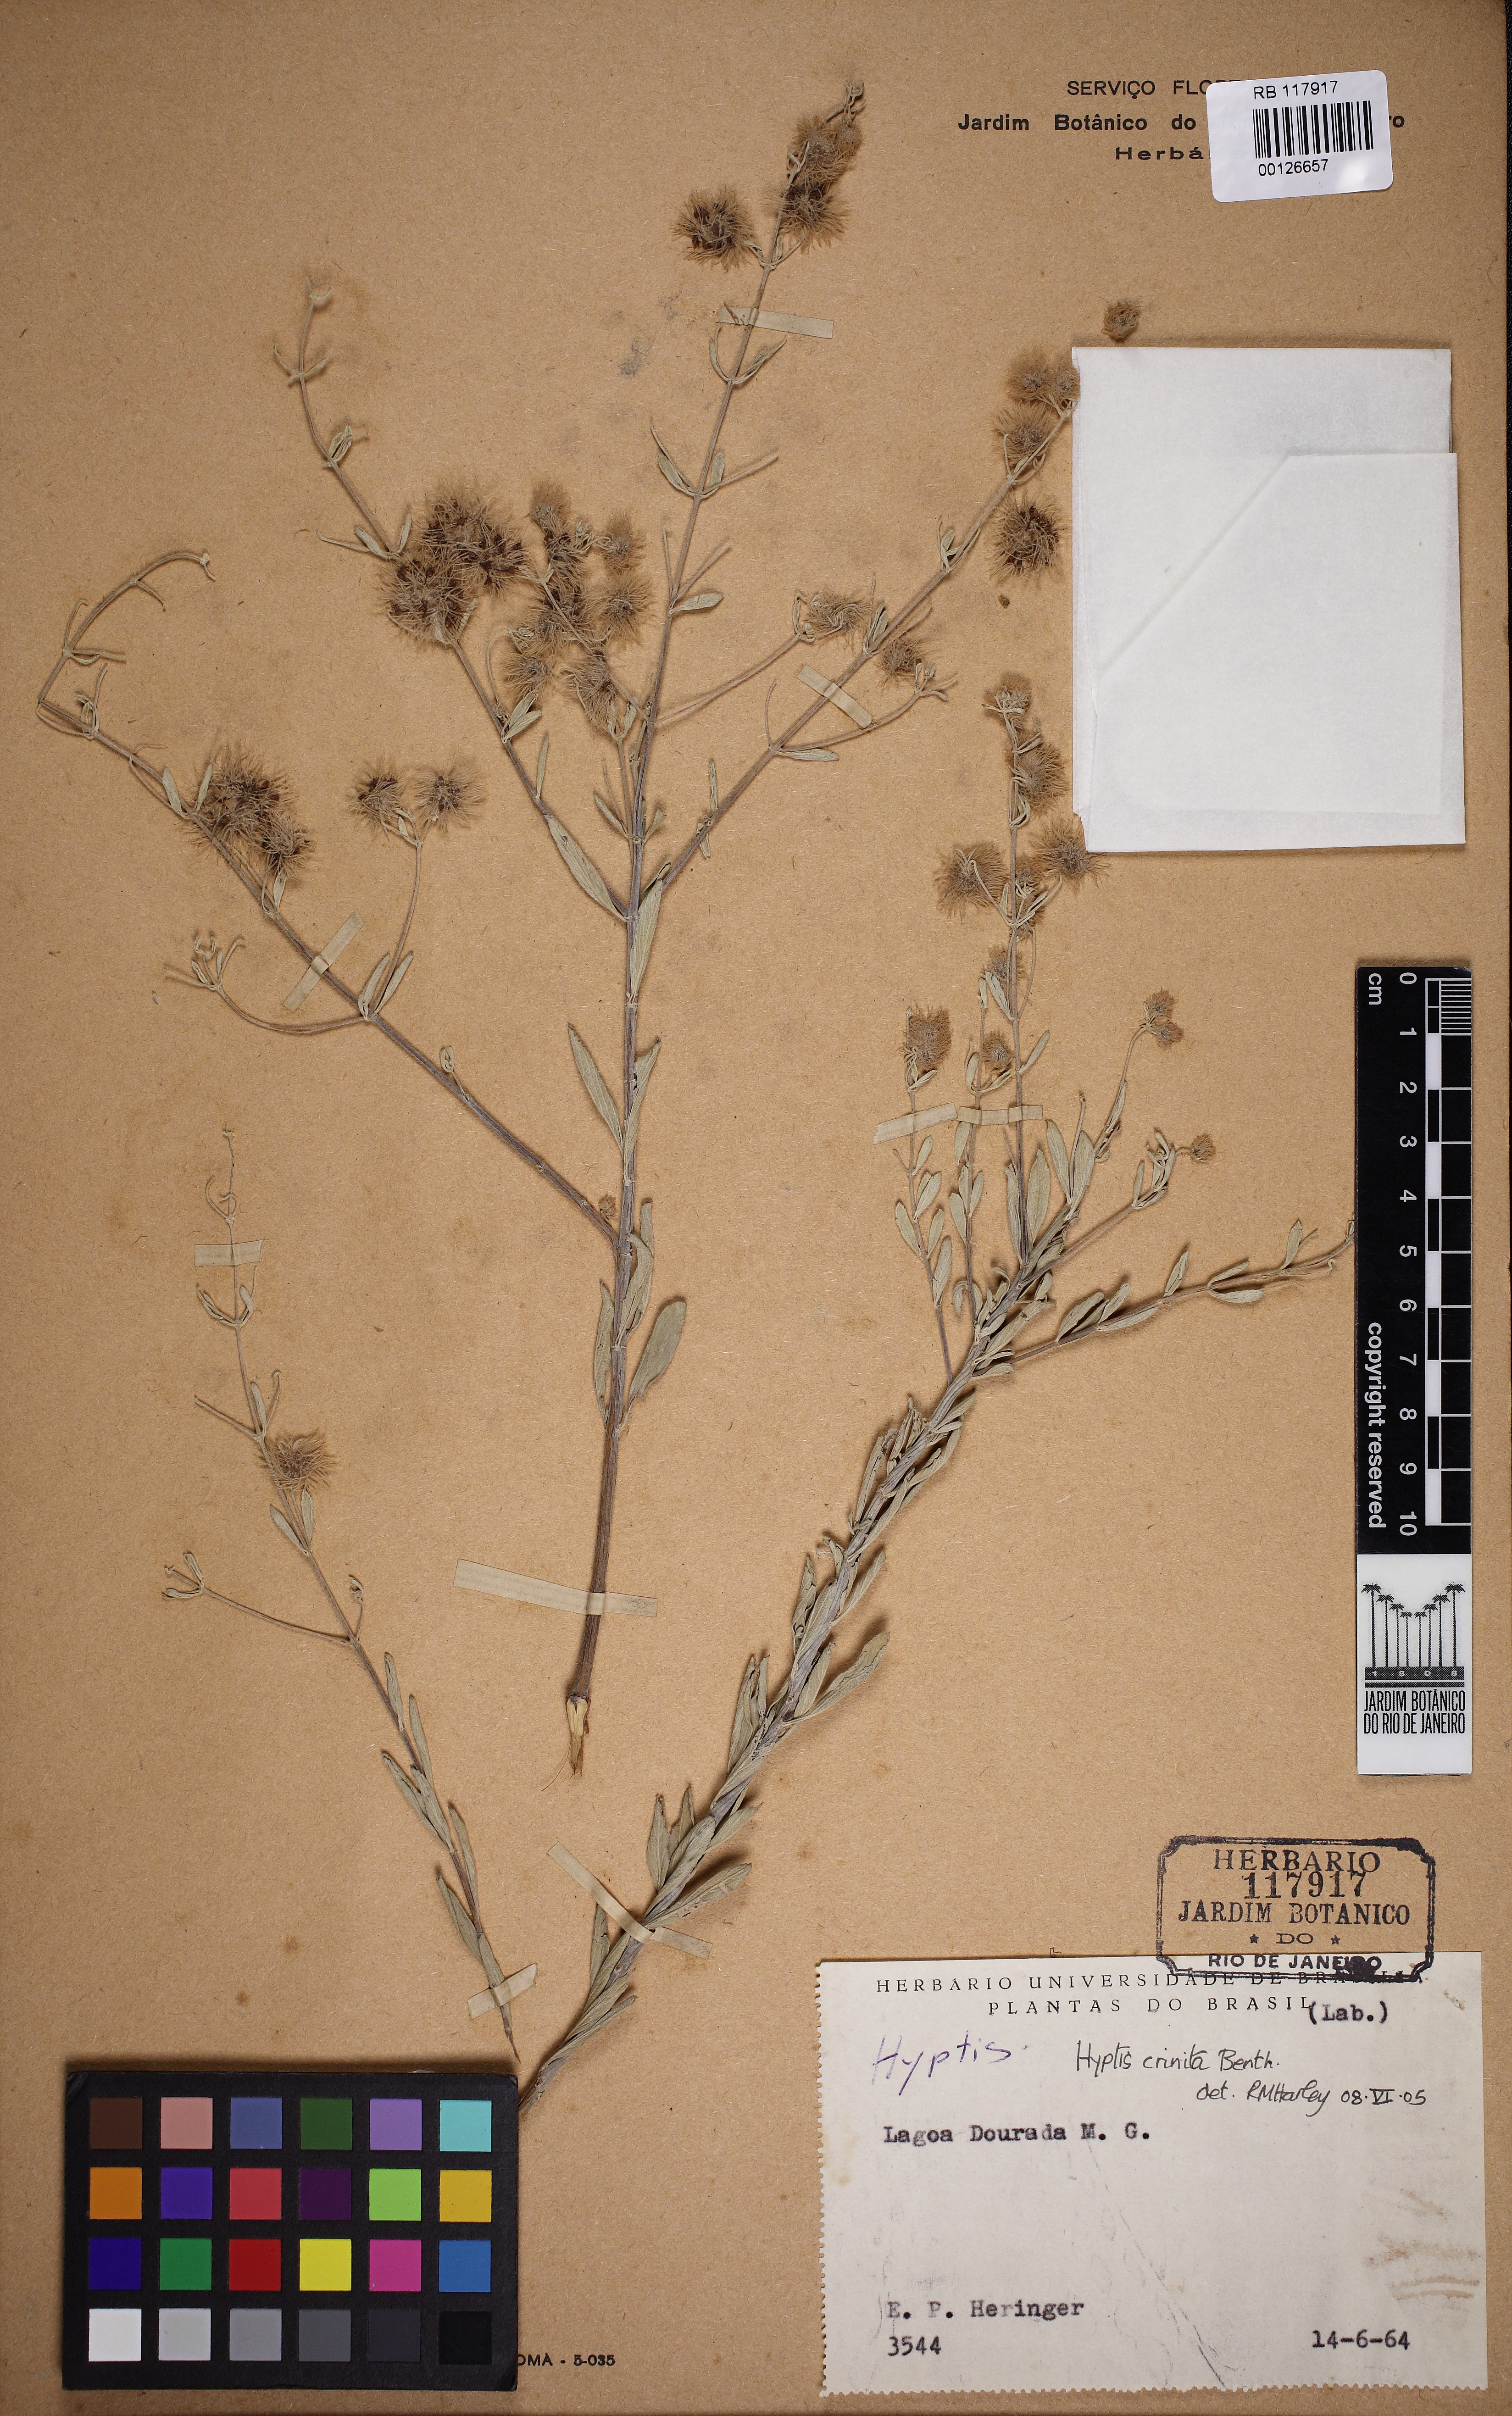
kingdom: Plantae
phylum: Tracheophyta
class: Magnoliopsida
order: Lamiales
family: Lamiaceae
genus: Medusantha
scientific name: Medusantha crinita
